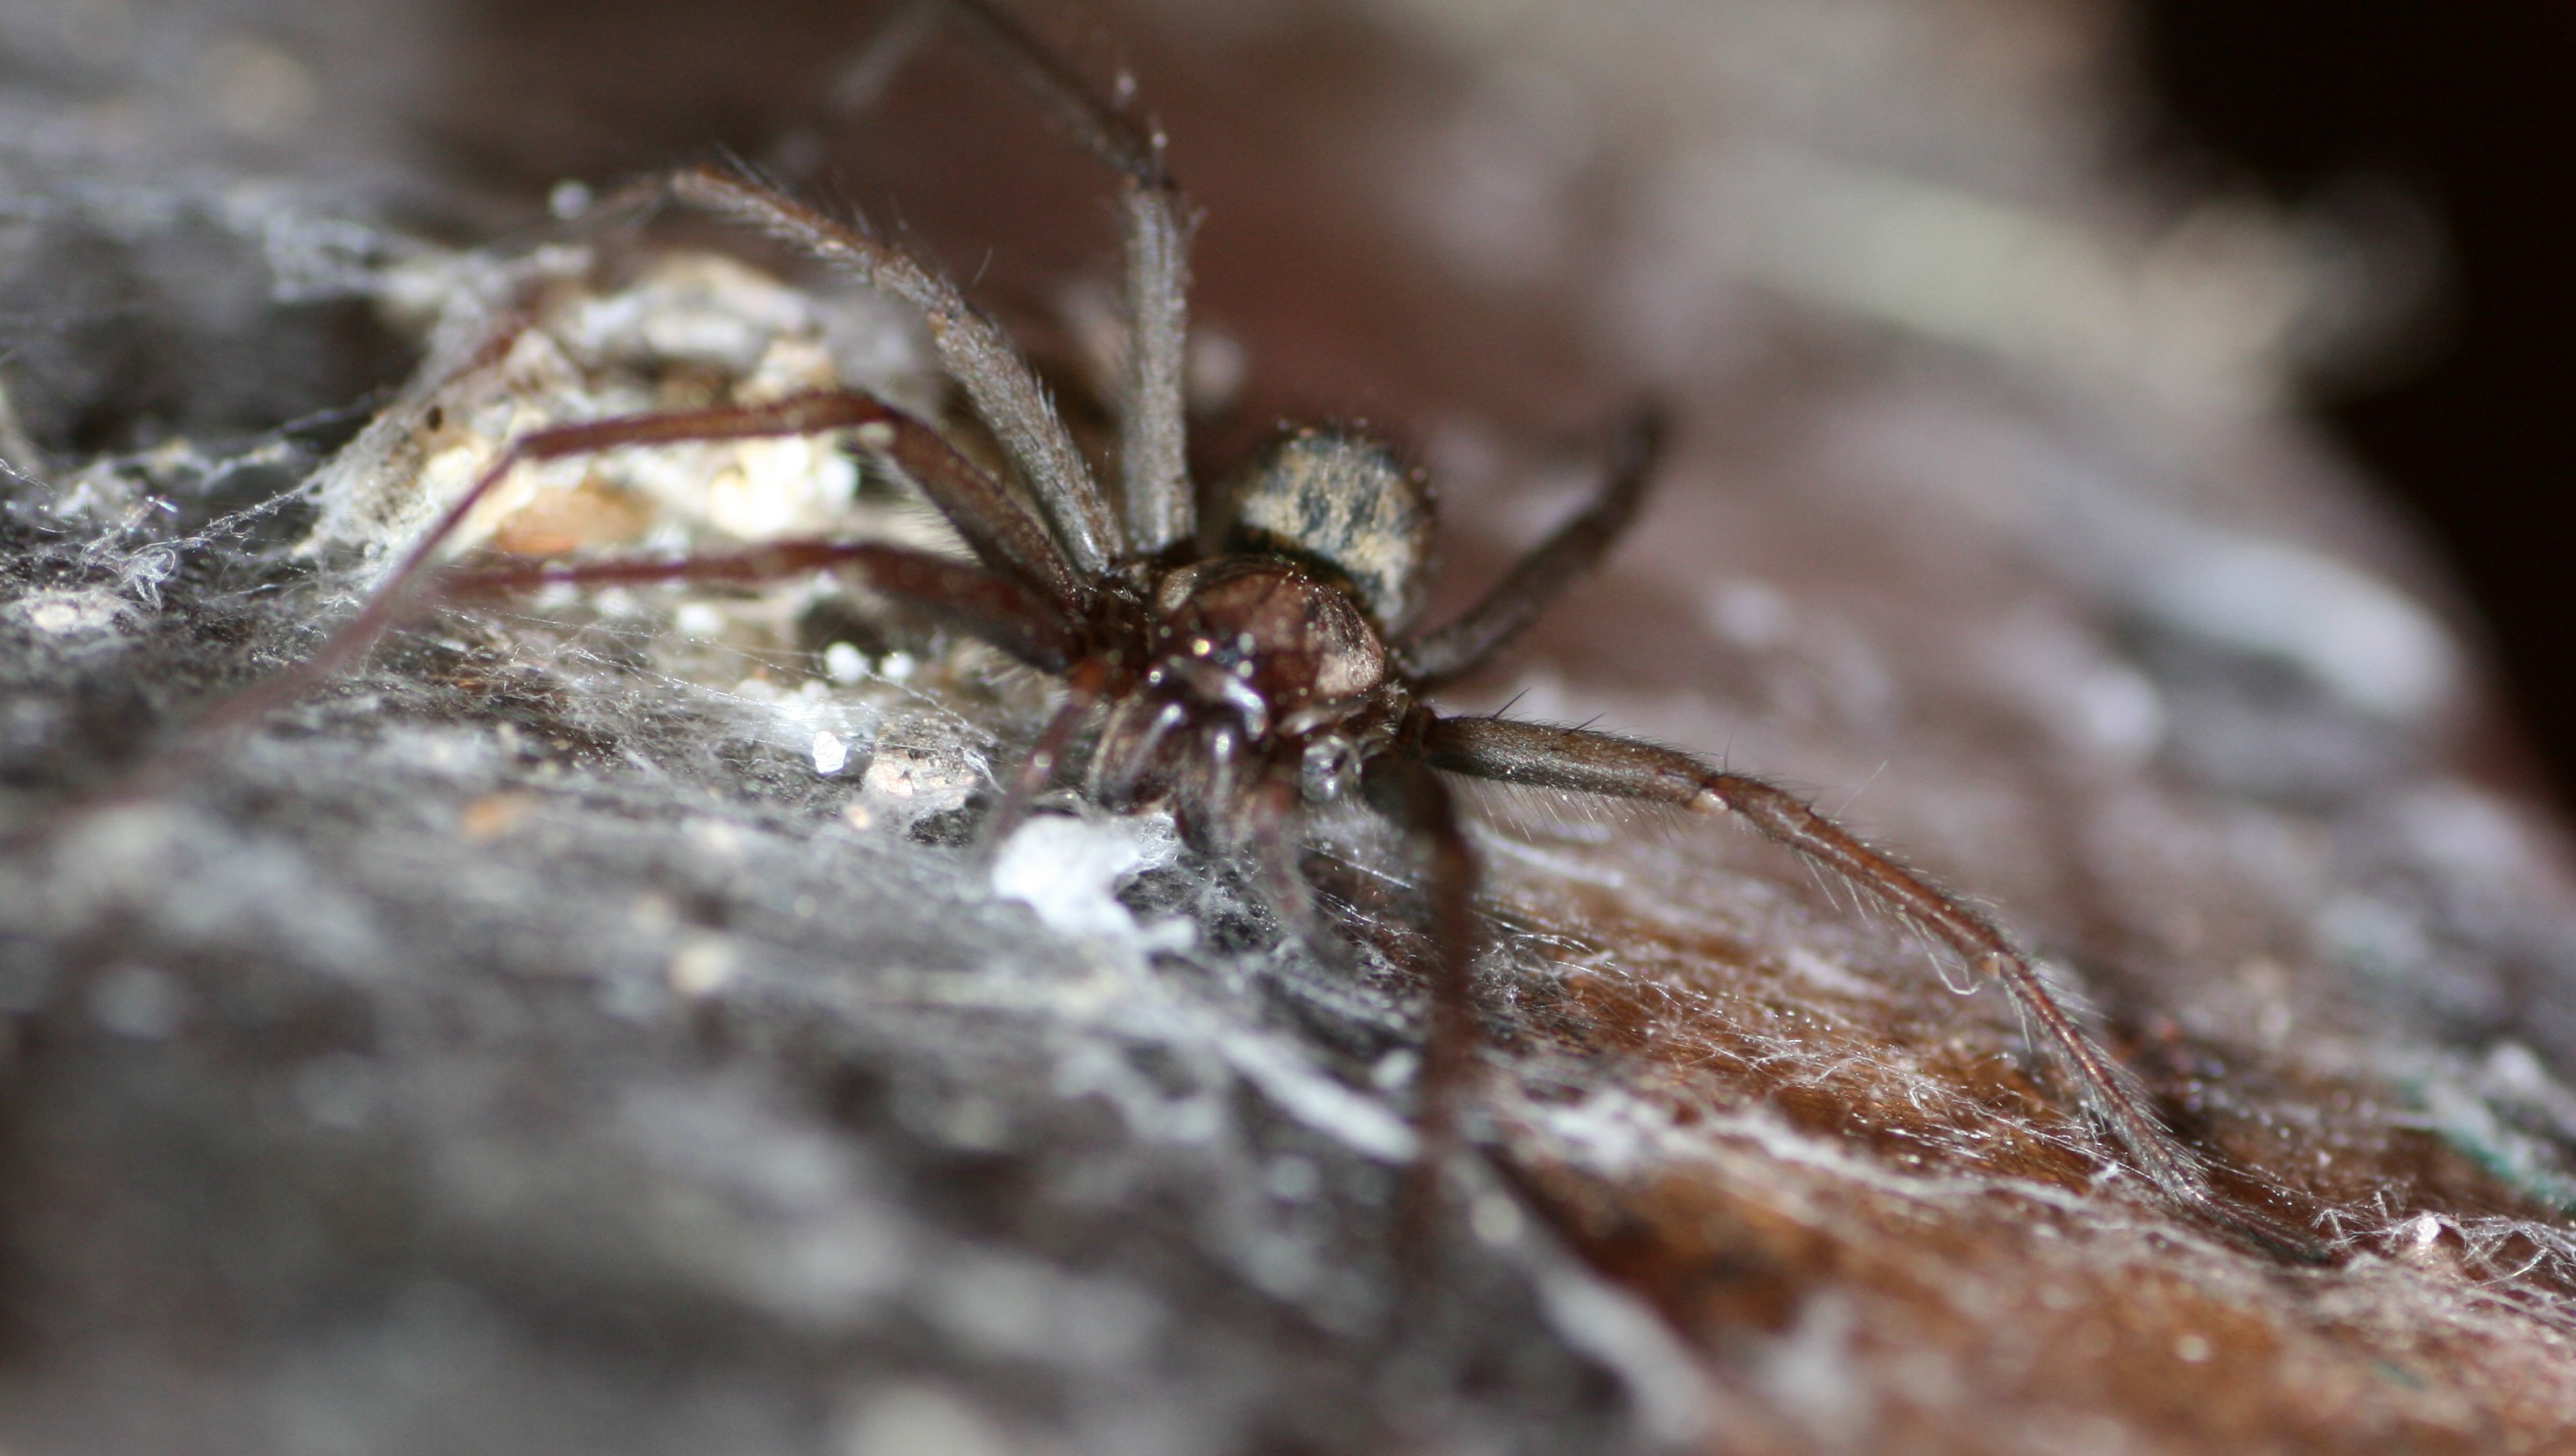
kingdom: Animalia
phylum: Arthropoda
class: Arachnida
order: Araneae
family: Agelenidae
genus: Eratigena
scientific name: Eratigena atrica
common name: Stor husedderkop
